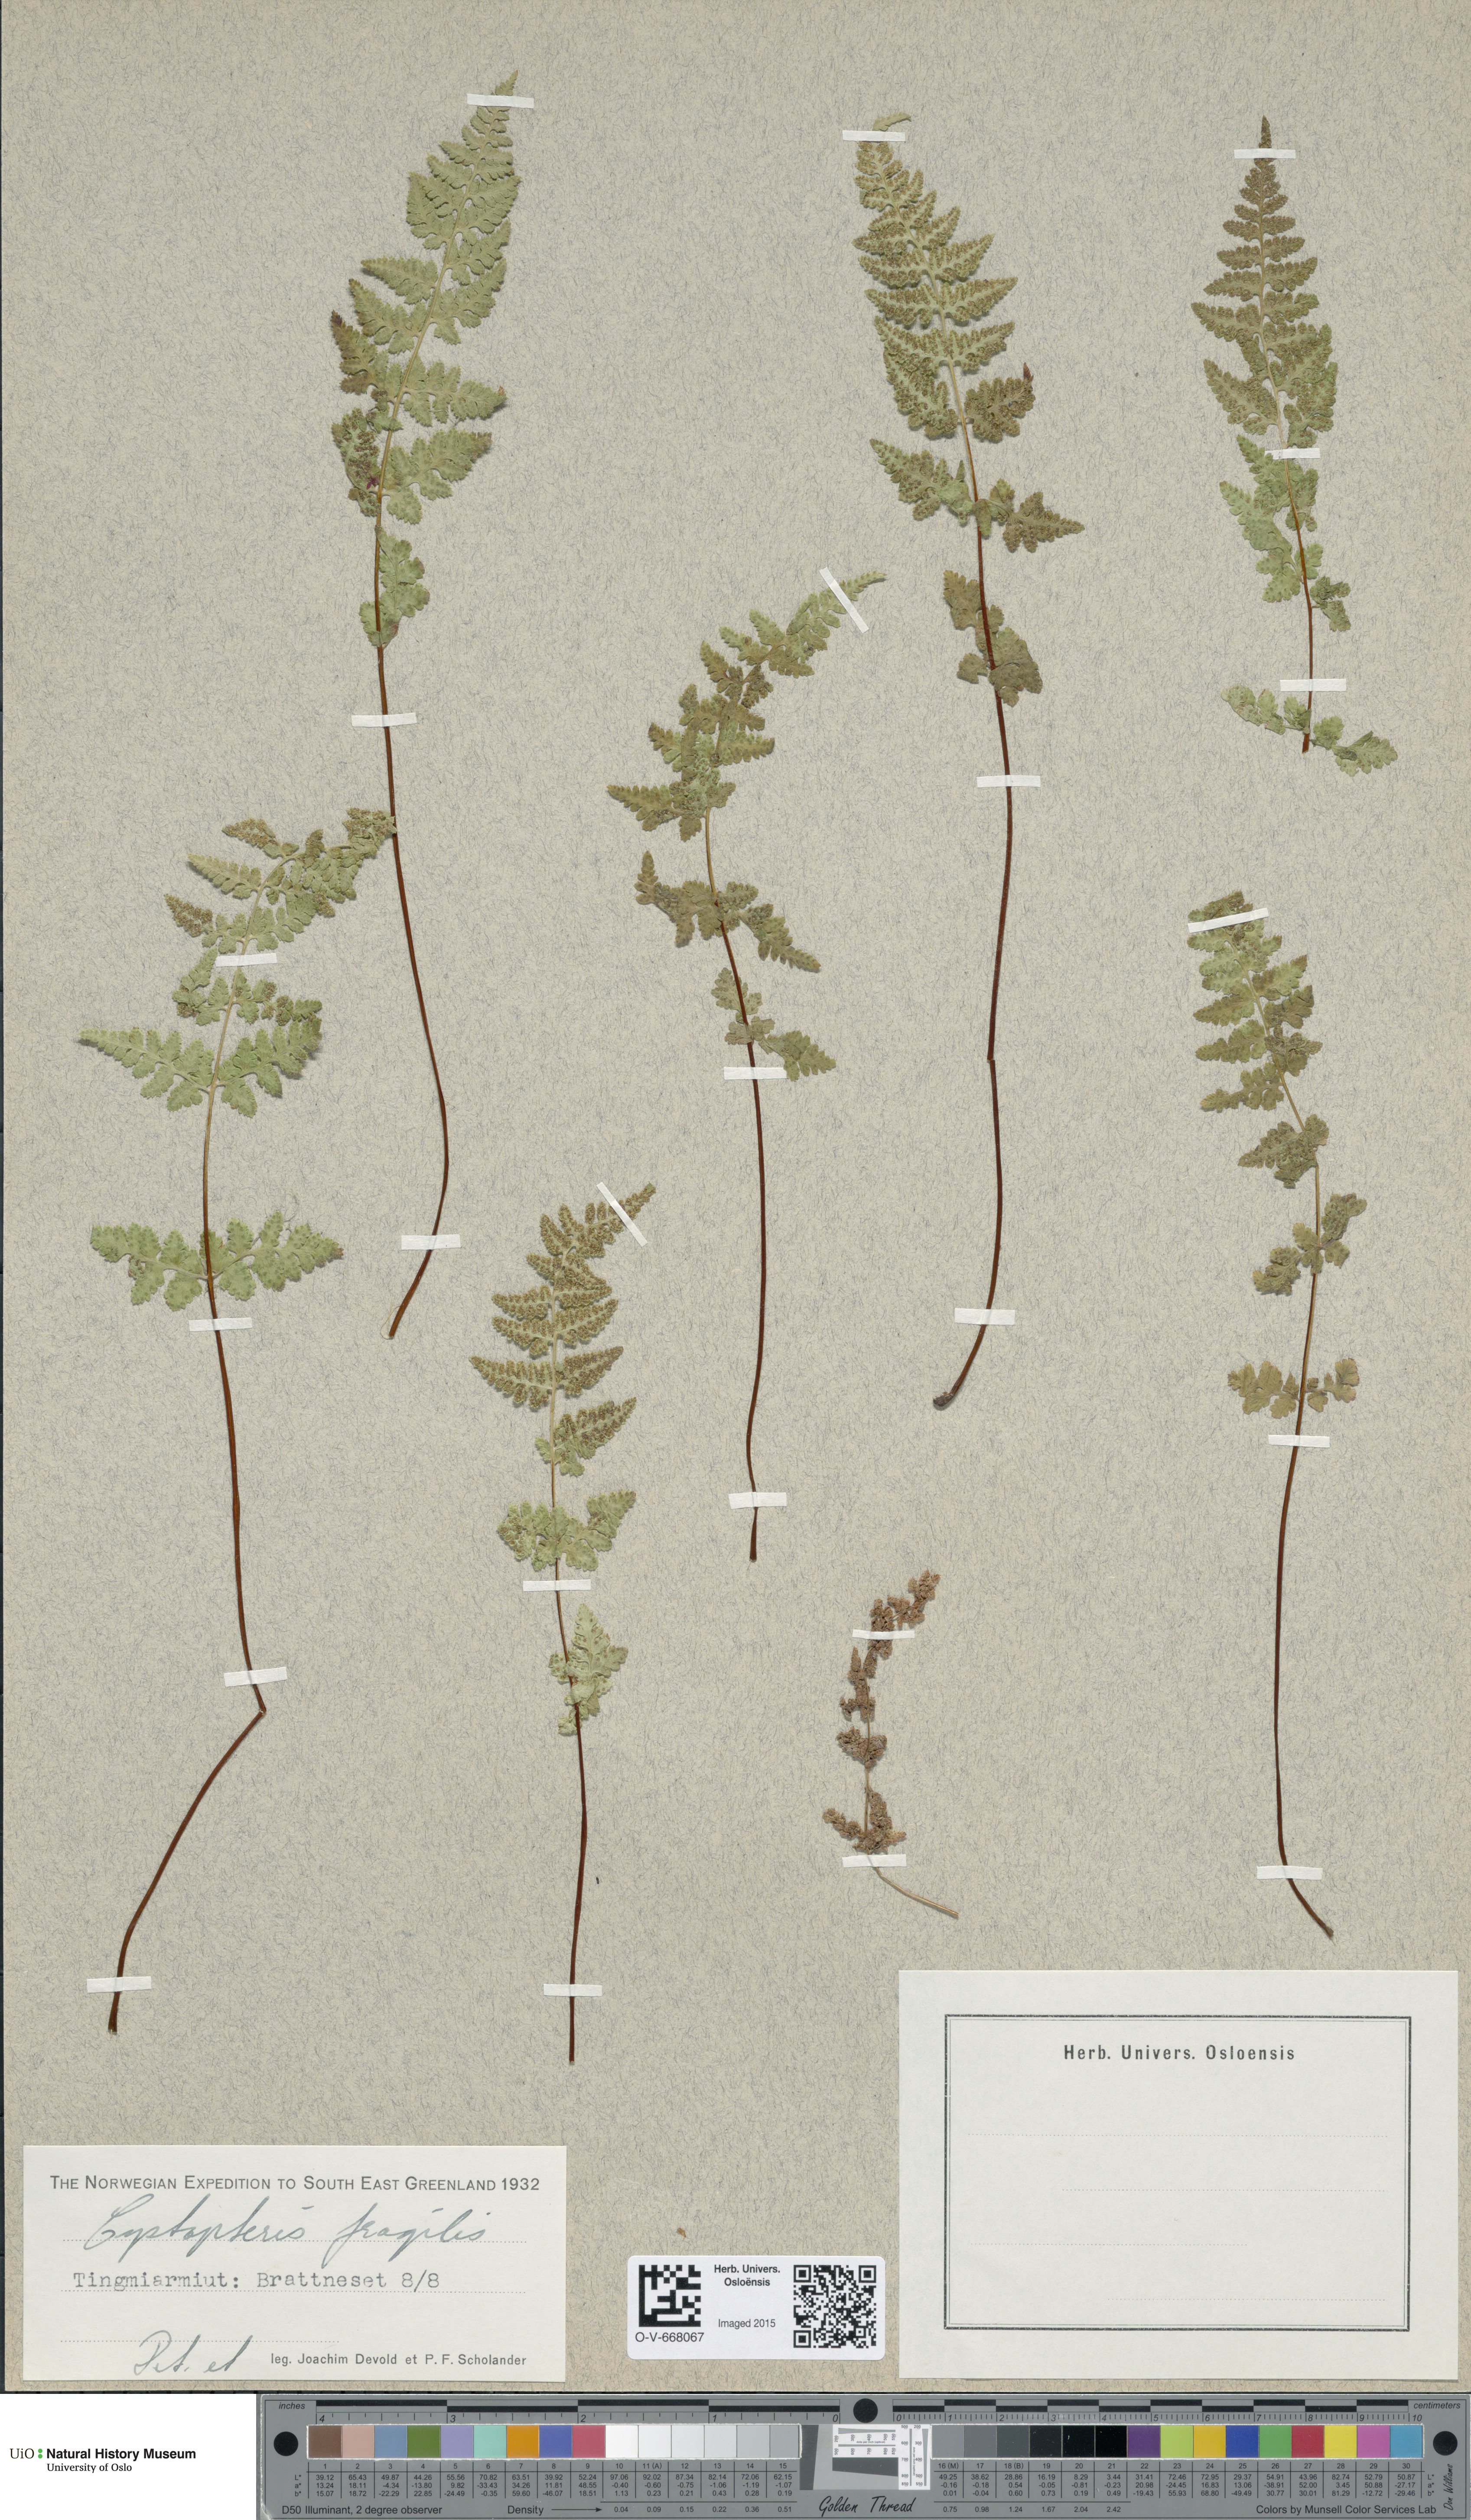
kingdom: Plantae
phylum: Tracheophyta
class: Polypodiopsida
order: Polypodiales
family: Cystopteridaceae
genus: Cystopteris
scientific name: Cystopteris fragilis
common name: Brittle bladder fern
